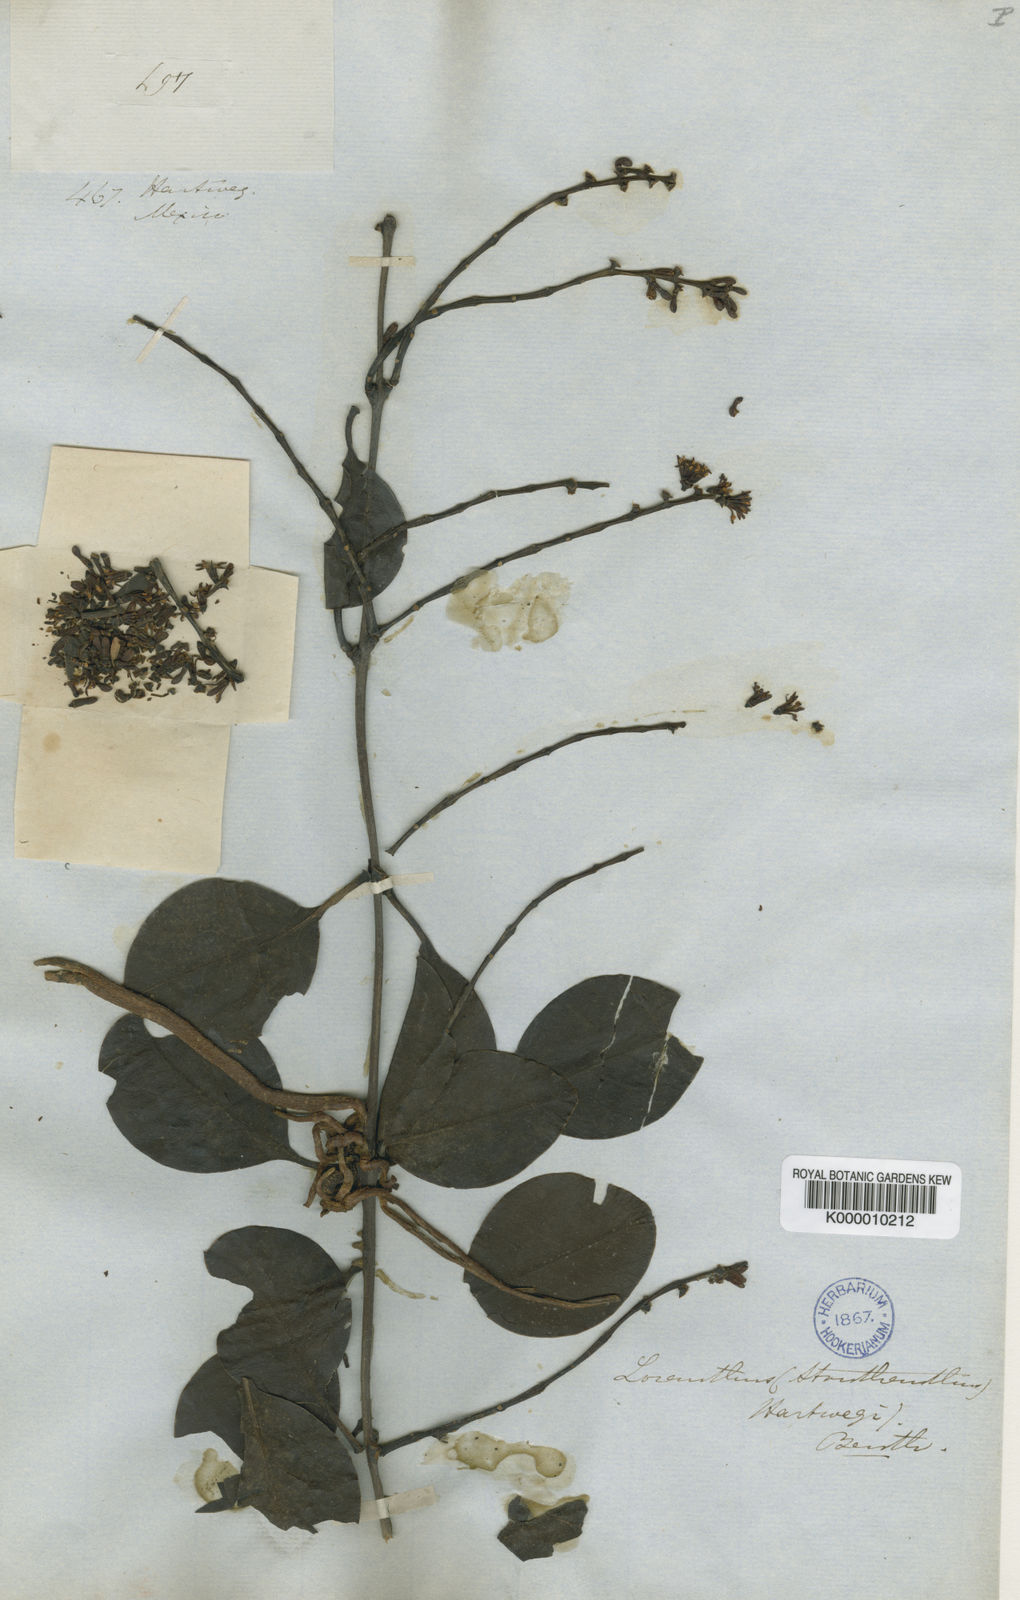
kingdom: Plantae
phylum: Tracheophyta
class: Magnoliopsida
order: Santalales
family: Loranthaceae
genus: Struthanthus
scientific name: Struthanthus hartwegii
